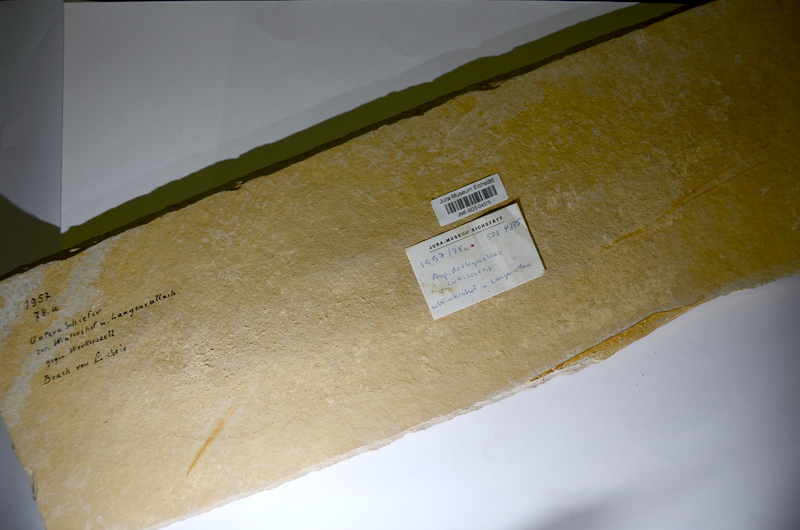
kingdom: Animalia
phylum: Chordata
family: Aspidorhynchidae
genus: Aspidorhynchus
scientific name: Aspidorhynchus acutirostris
